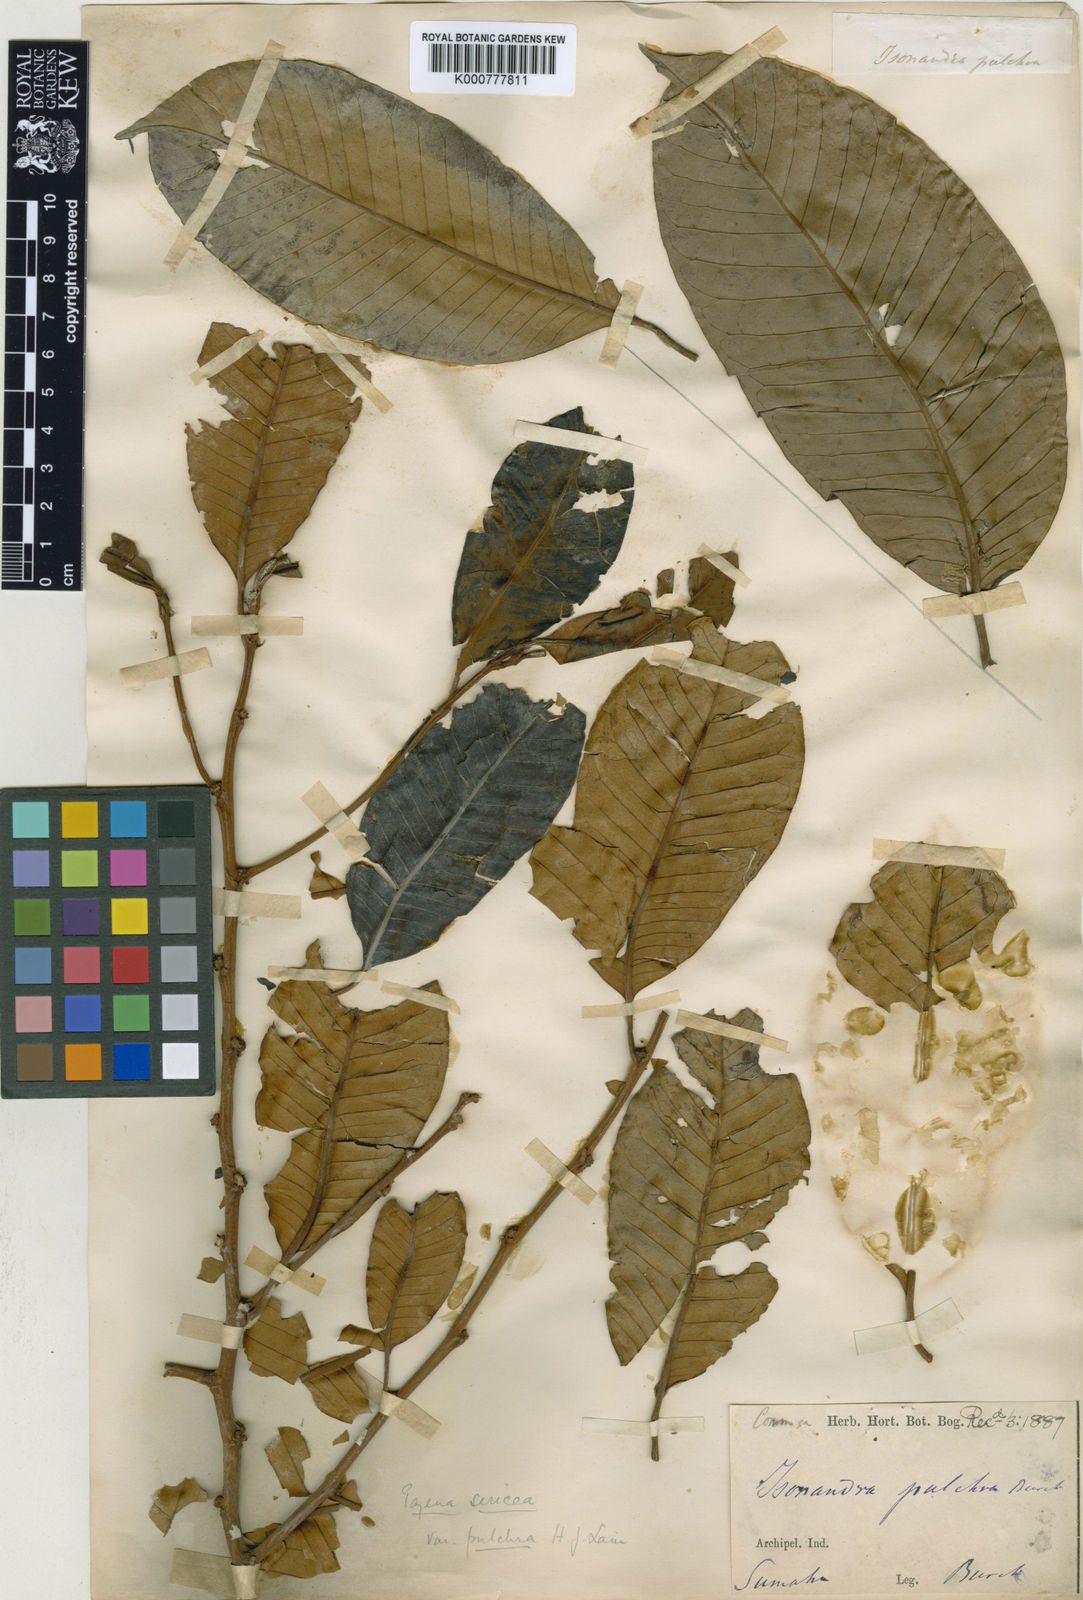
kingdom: Plantae
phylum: Tracheophyta
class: Magnoliopsida
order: Ericales
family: Sapotaceae
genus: Payena
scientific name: Payena acuminata
